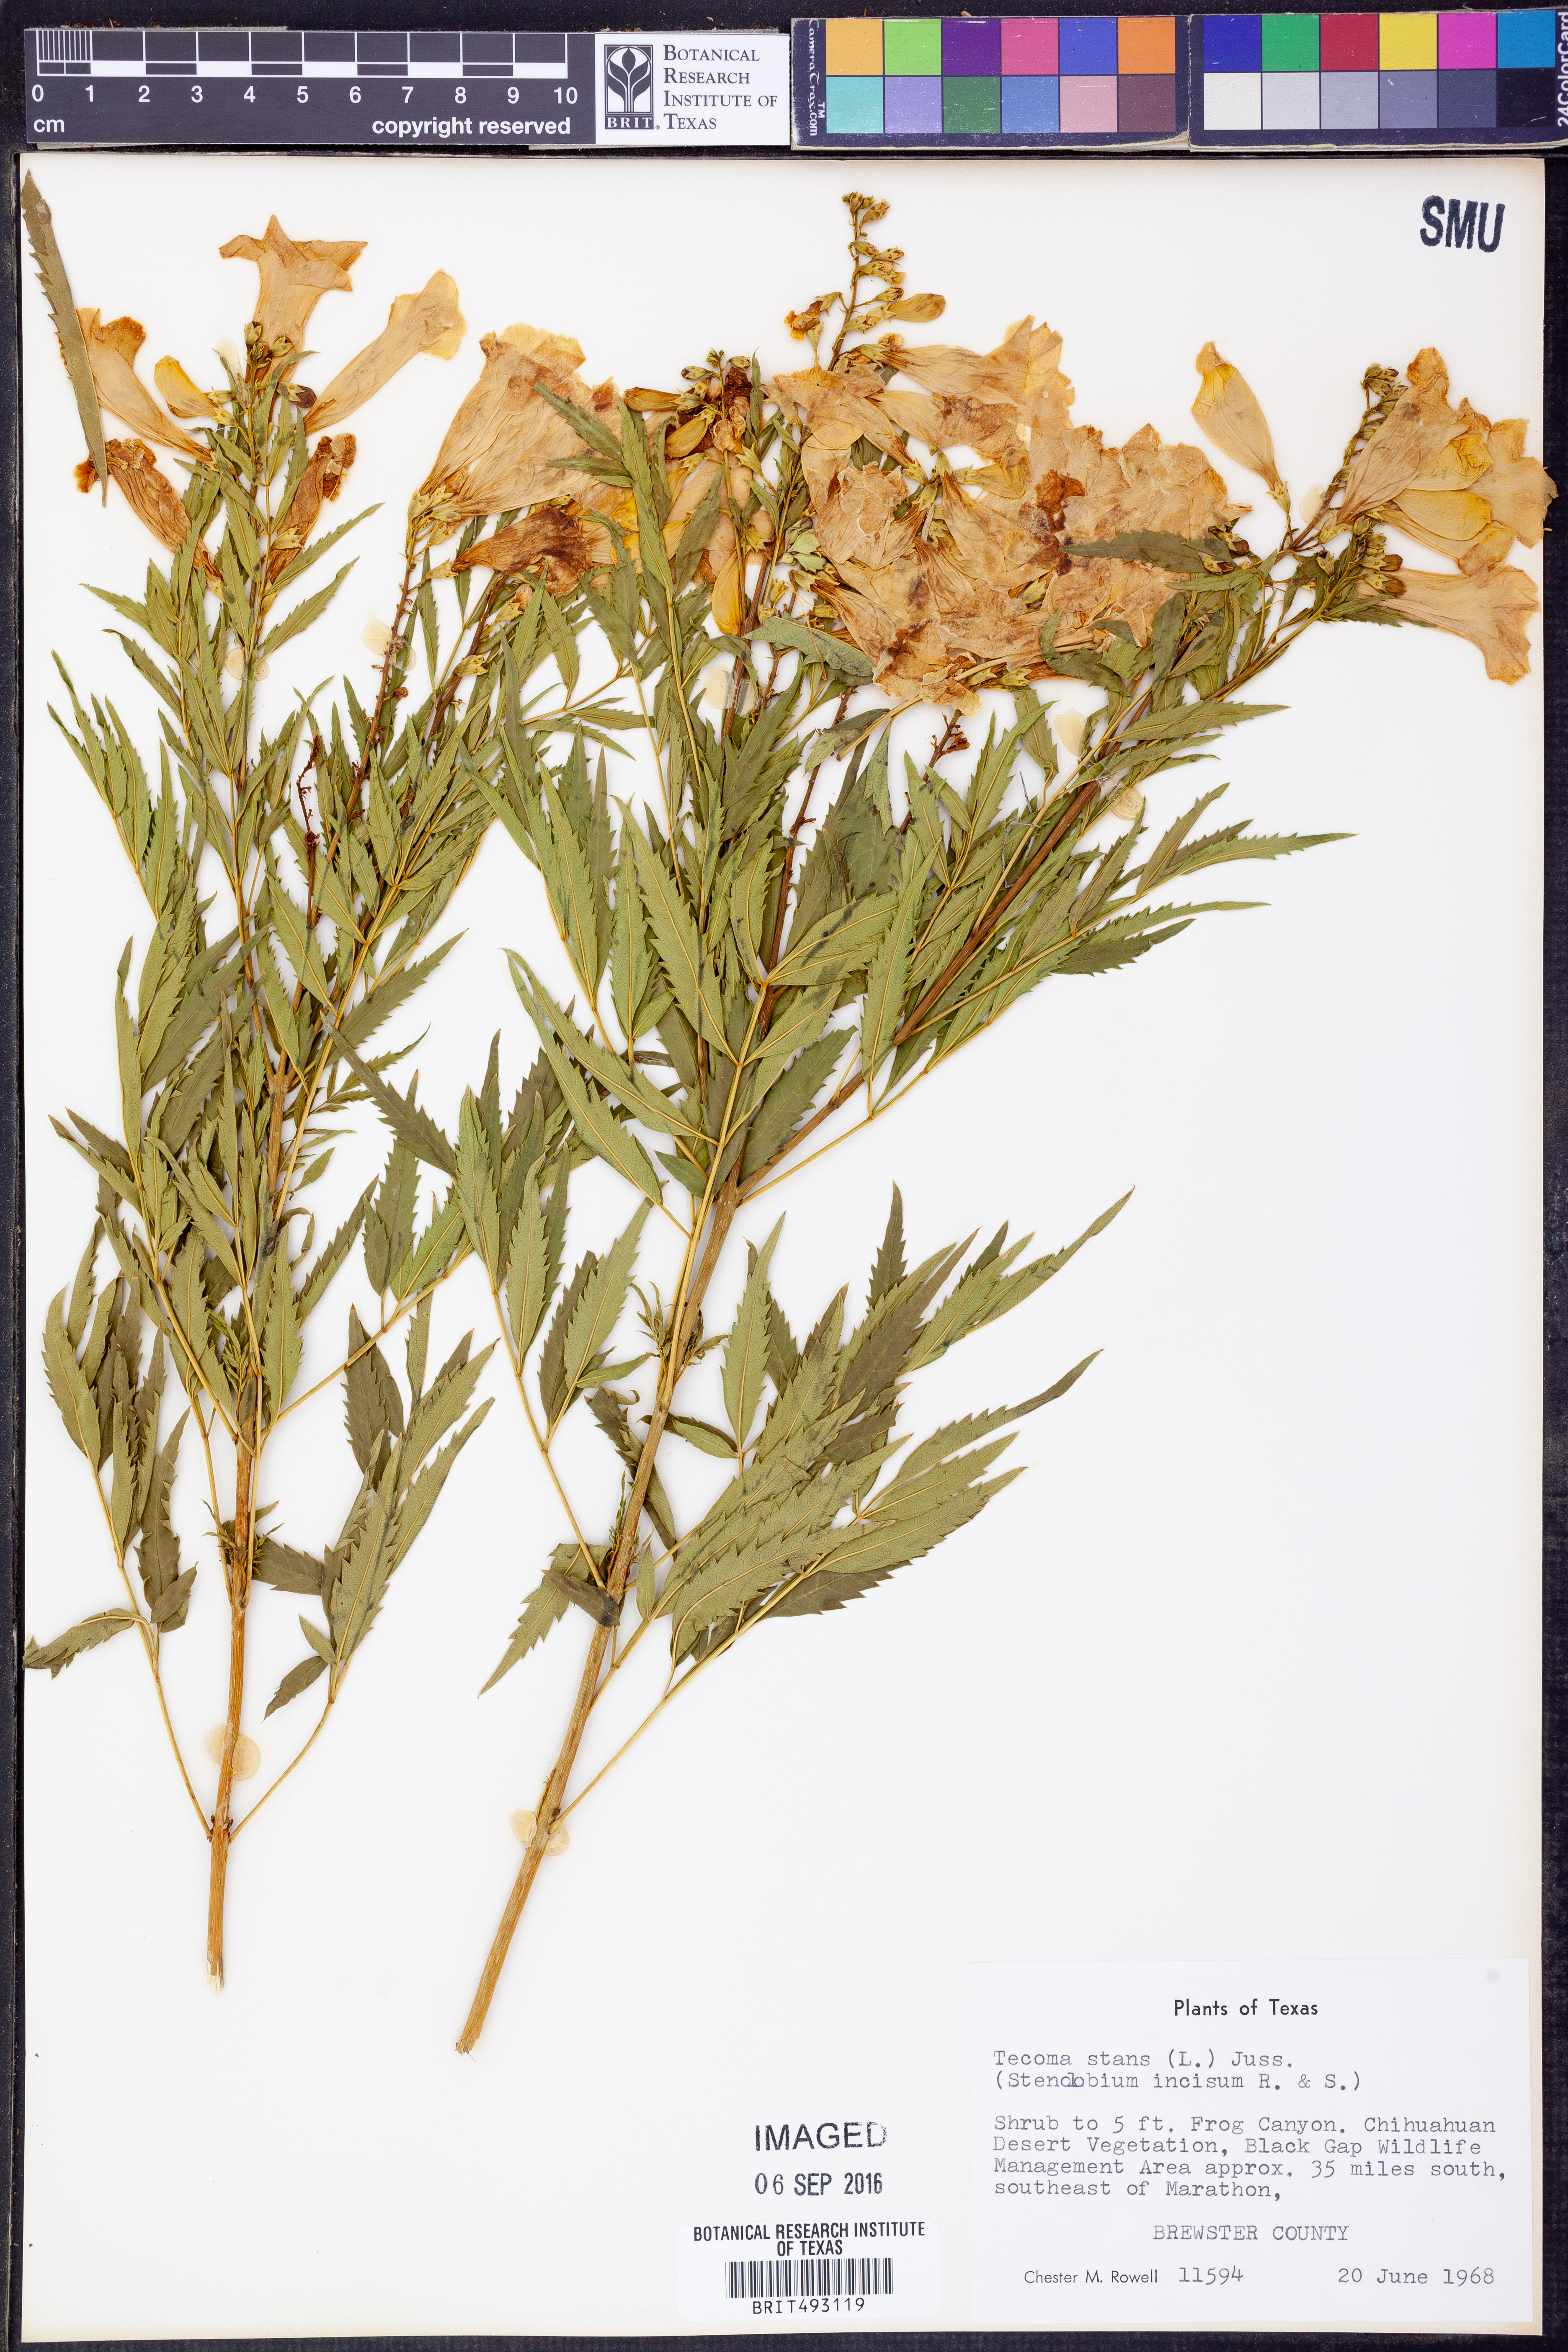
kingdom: Plantae
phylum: Tracheophyta
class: Magnoliopsida
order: Lamiales
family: Bignoniaceae
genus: Tecoma
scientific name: Tecoma stans
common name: Yellow trumpetbush
